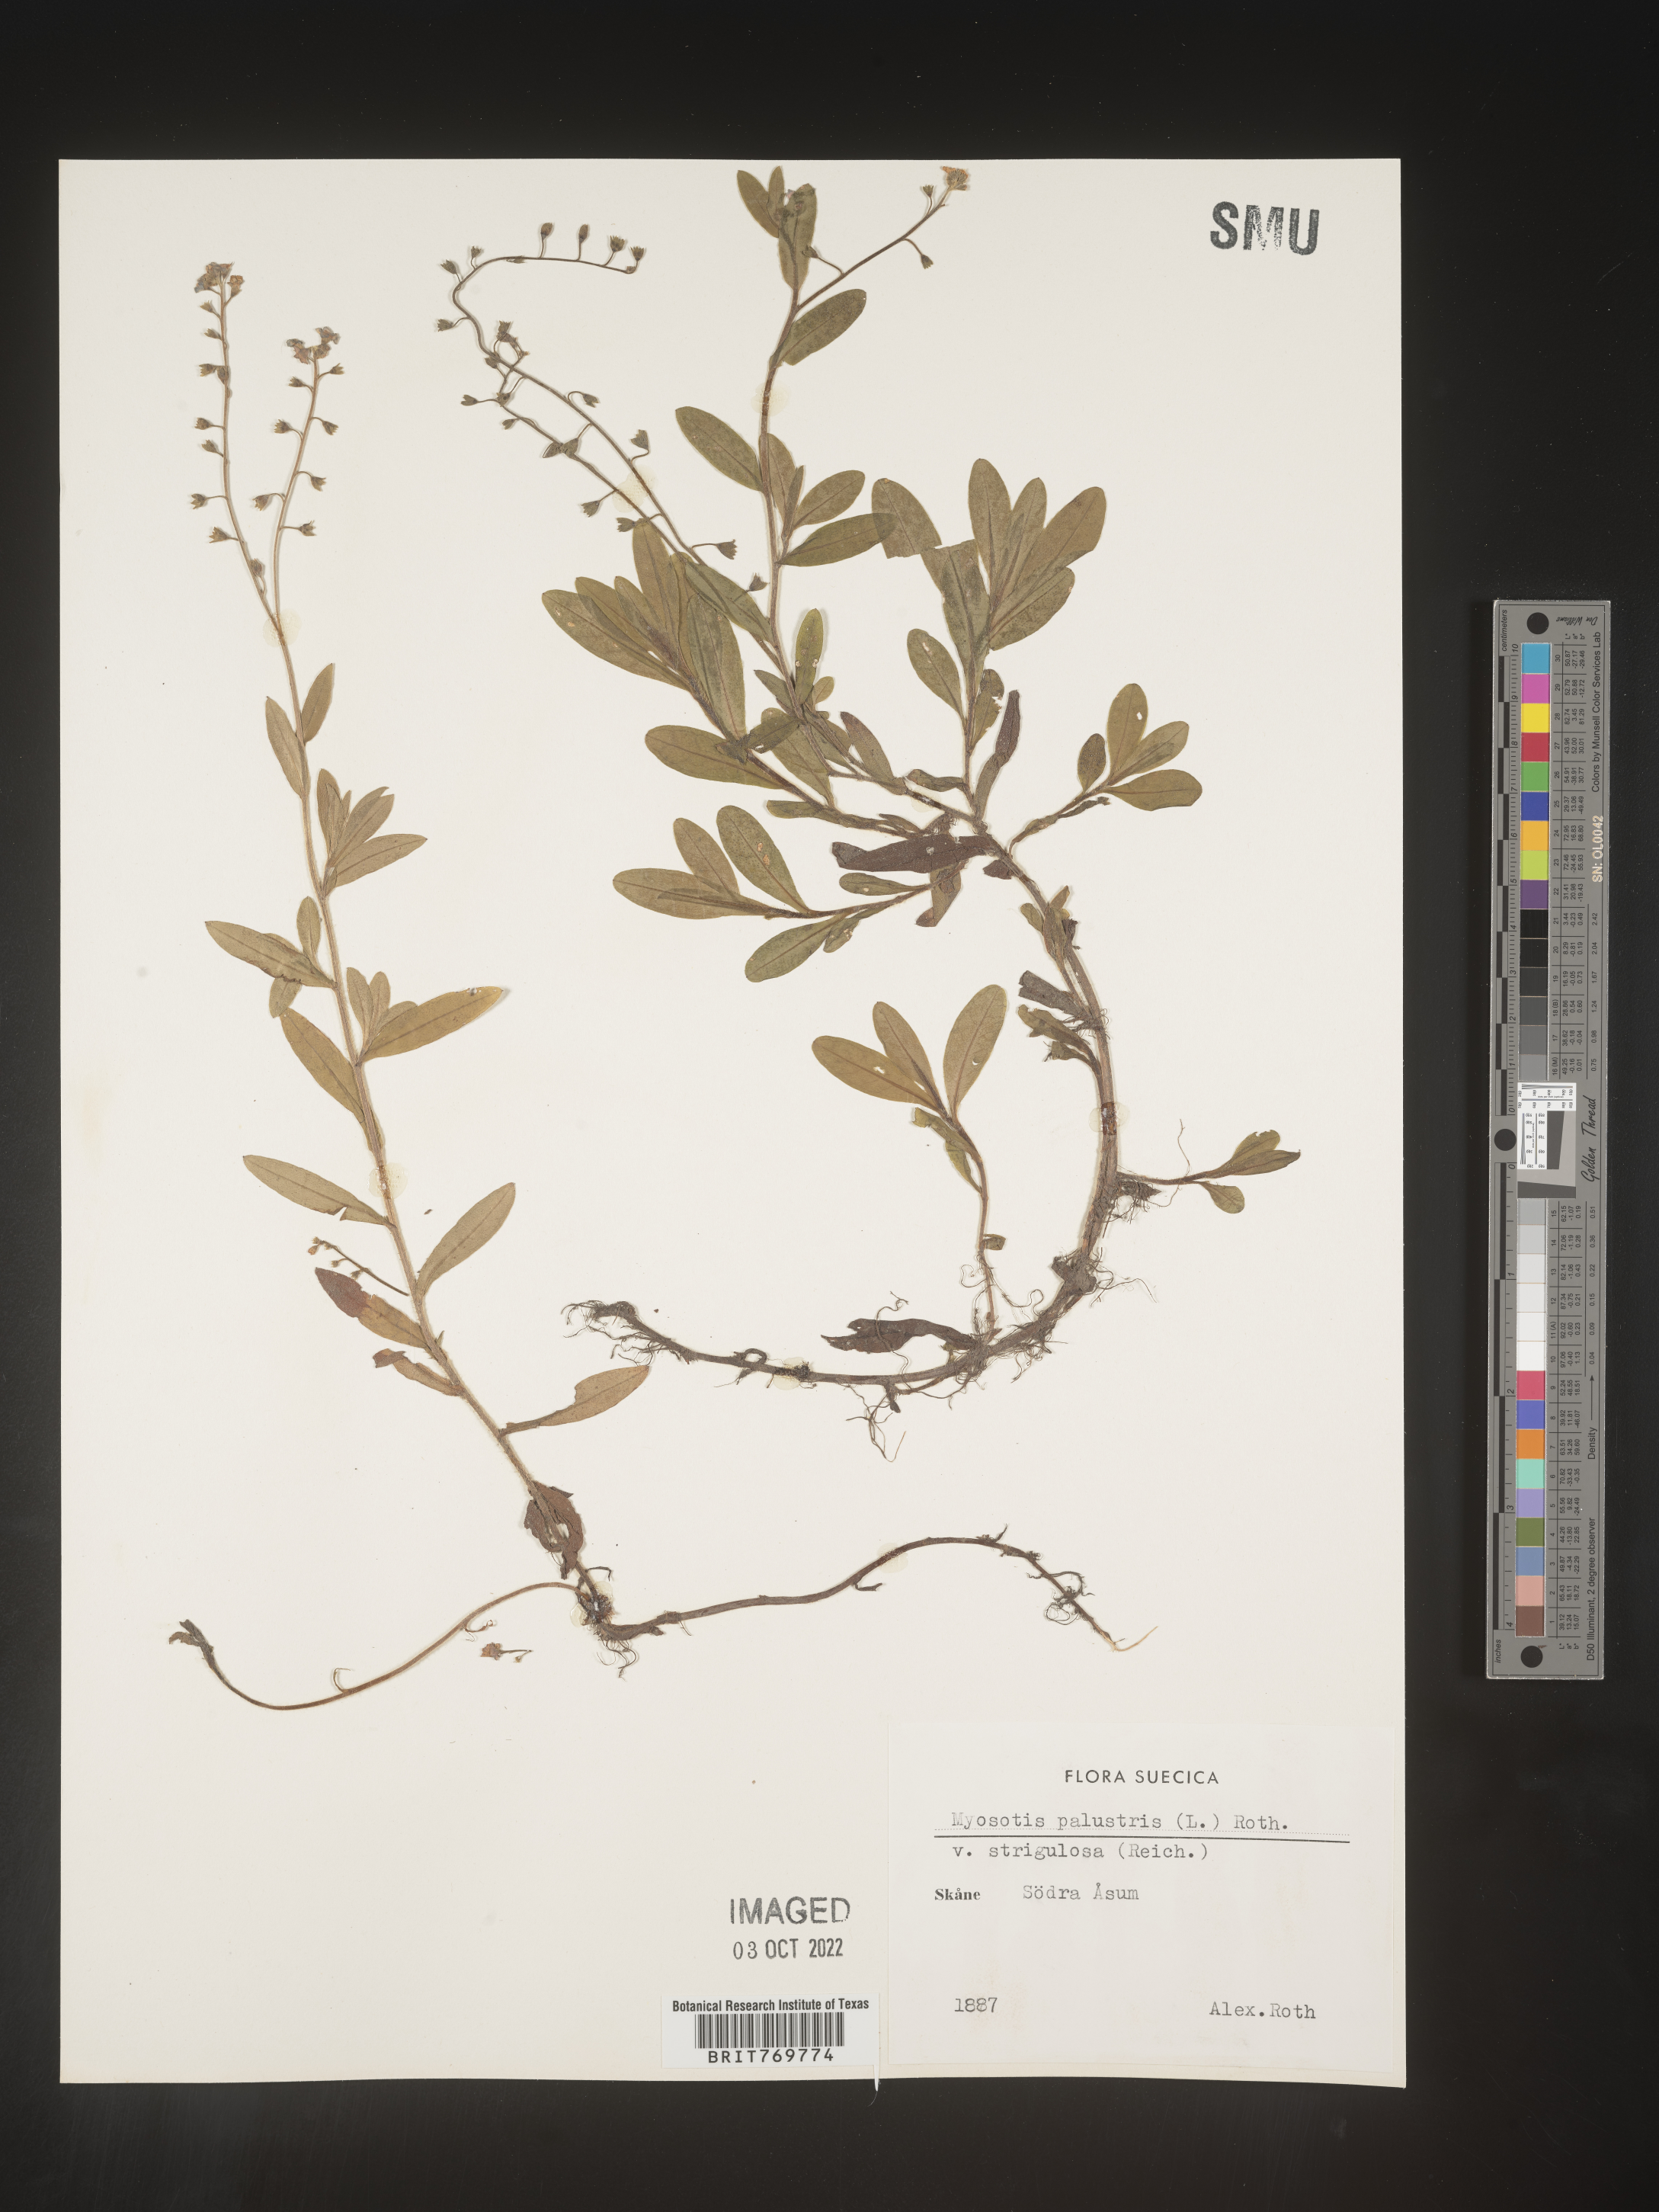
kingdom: Plantae
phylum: Tracheophyta
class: Magnoliopsida
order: Boraginales
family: Boraginaceae
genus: Myosotis
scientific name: Myosotis
